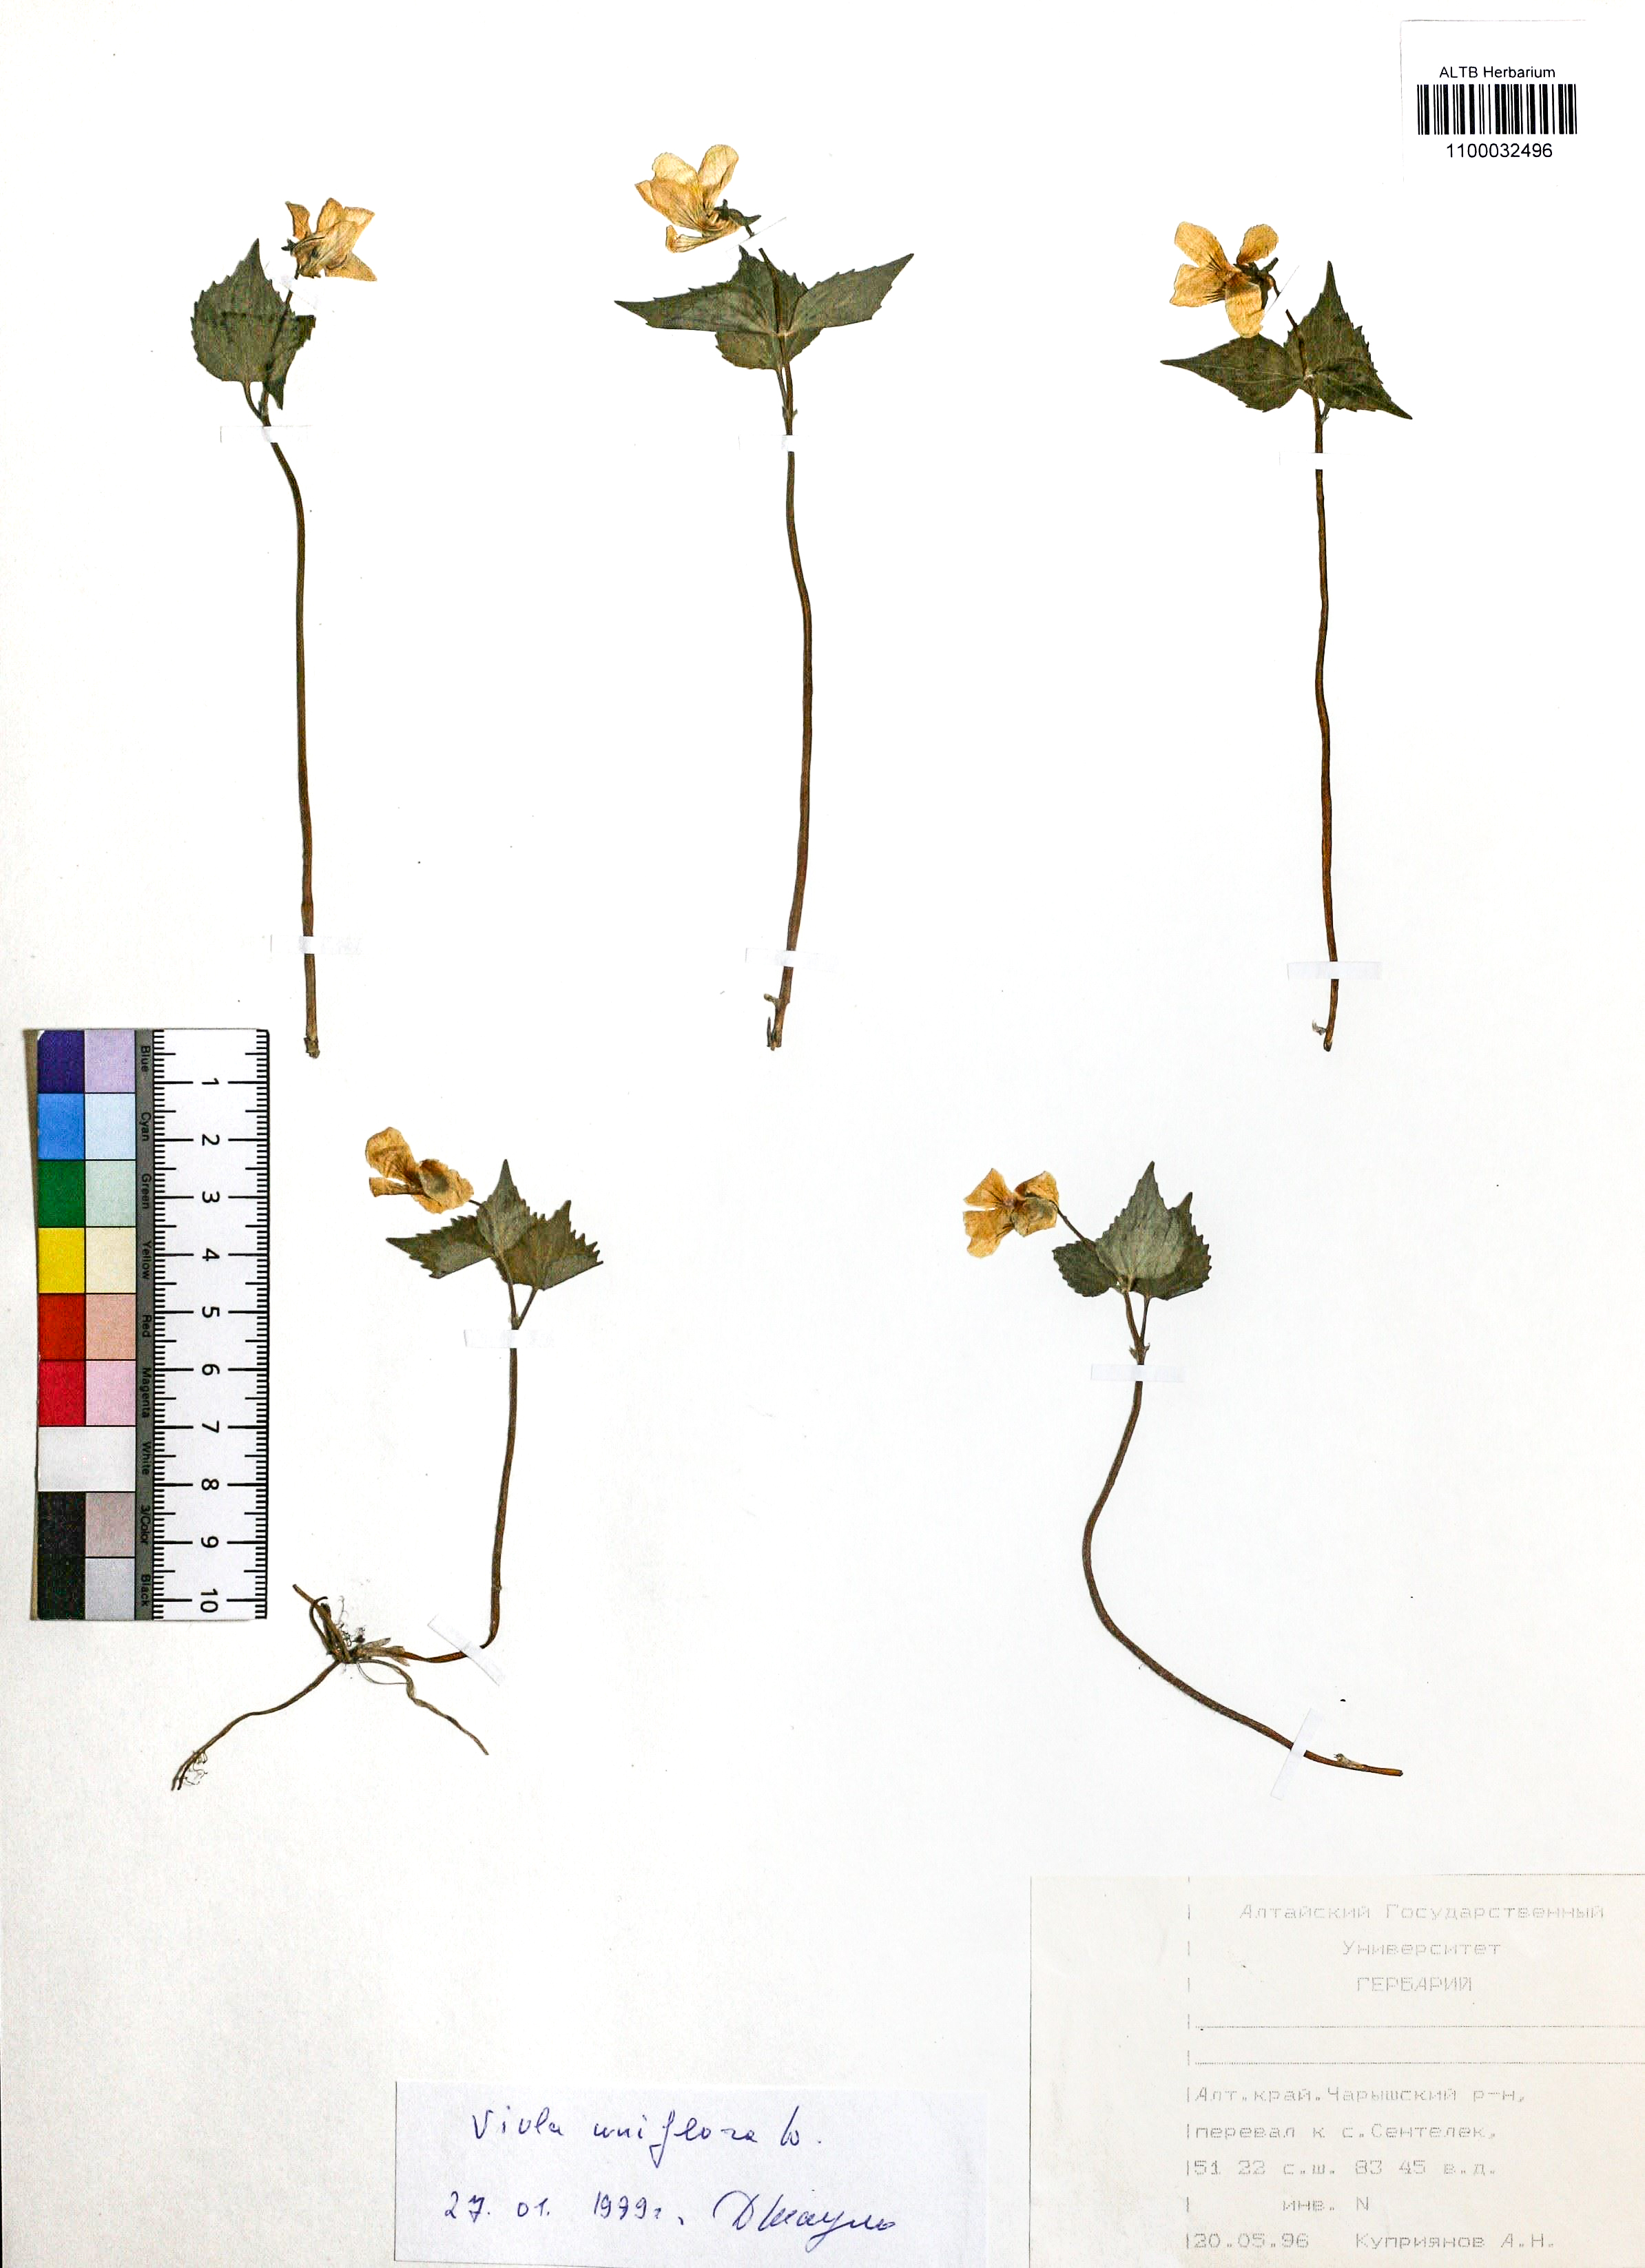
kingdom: Plantae
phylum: Tracheophyta
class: Magnoliopsida
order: Malpighiales
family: Violaceae
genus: Viola
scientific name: Viola uniflora
